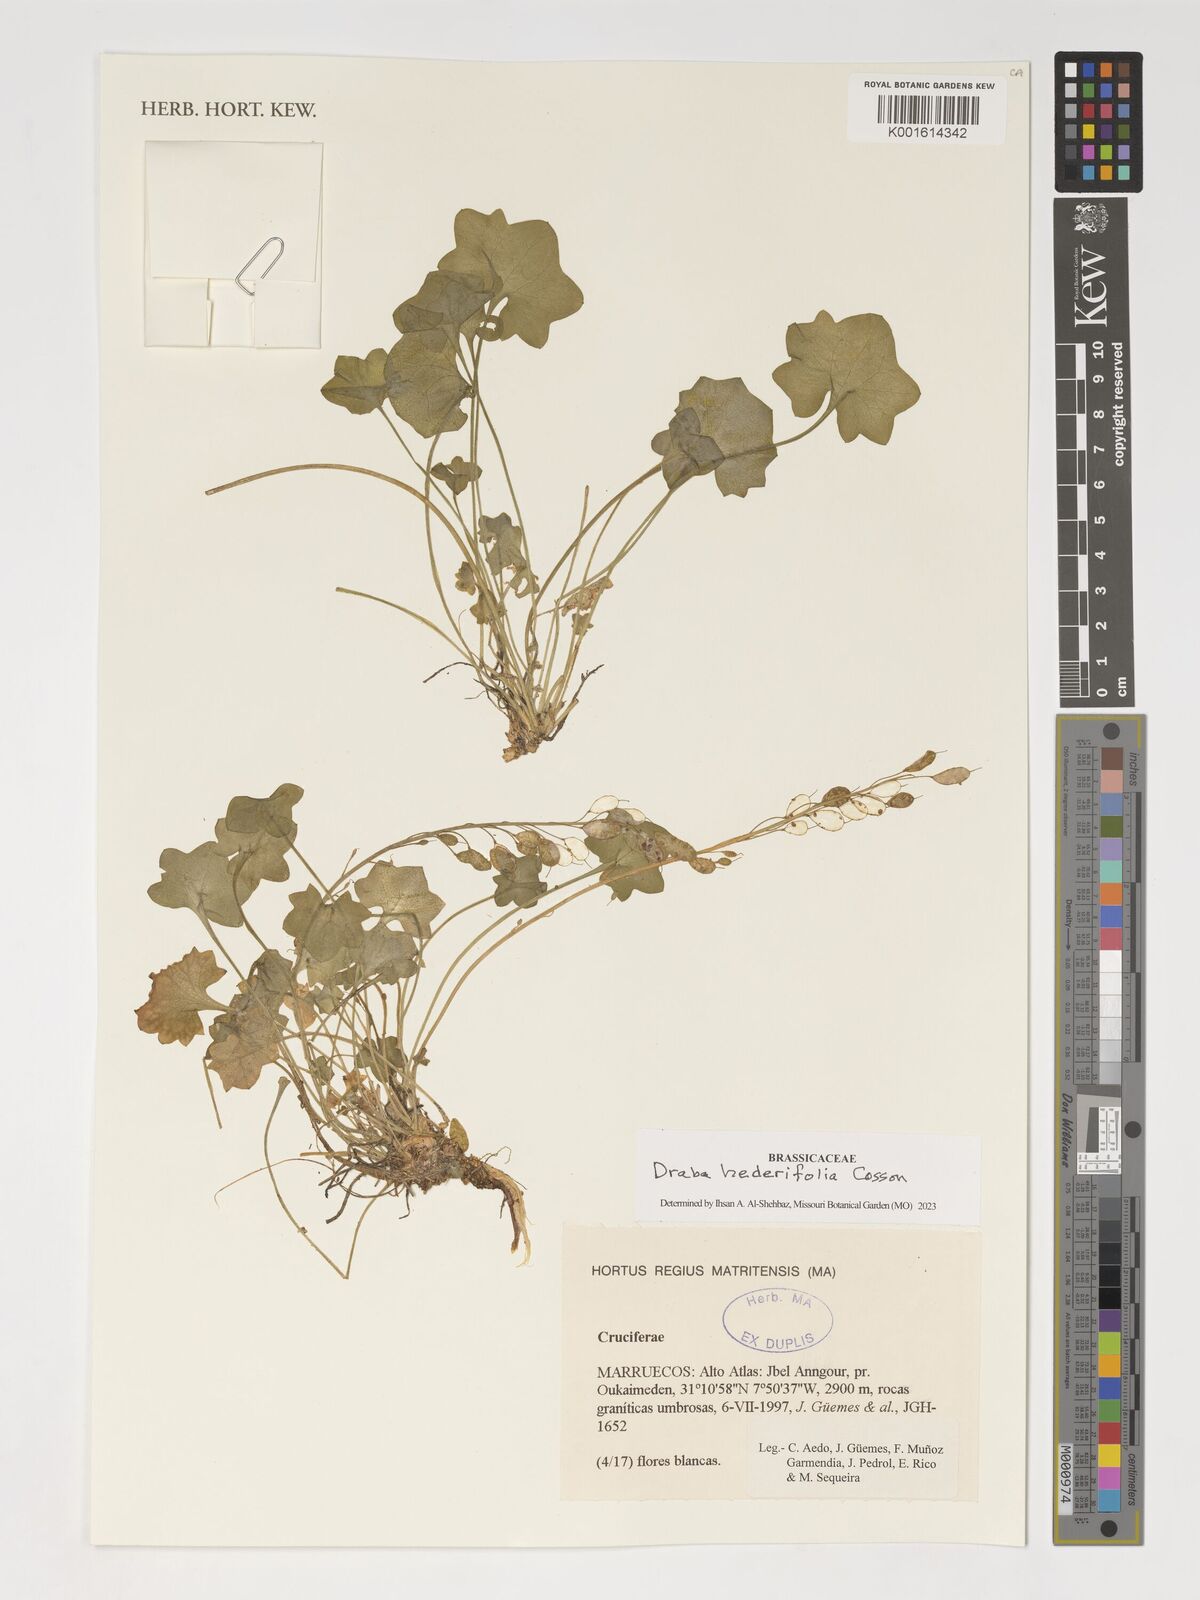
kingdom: Plantae
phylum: Tracheophyta
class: Magnoliopsida
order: Brassicales
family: Brassicaceae
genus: Draba
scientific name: Draba hederifolia
